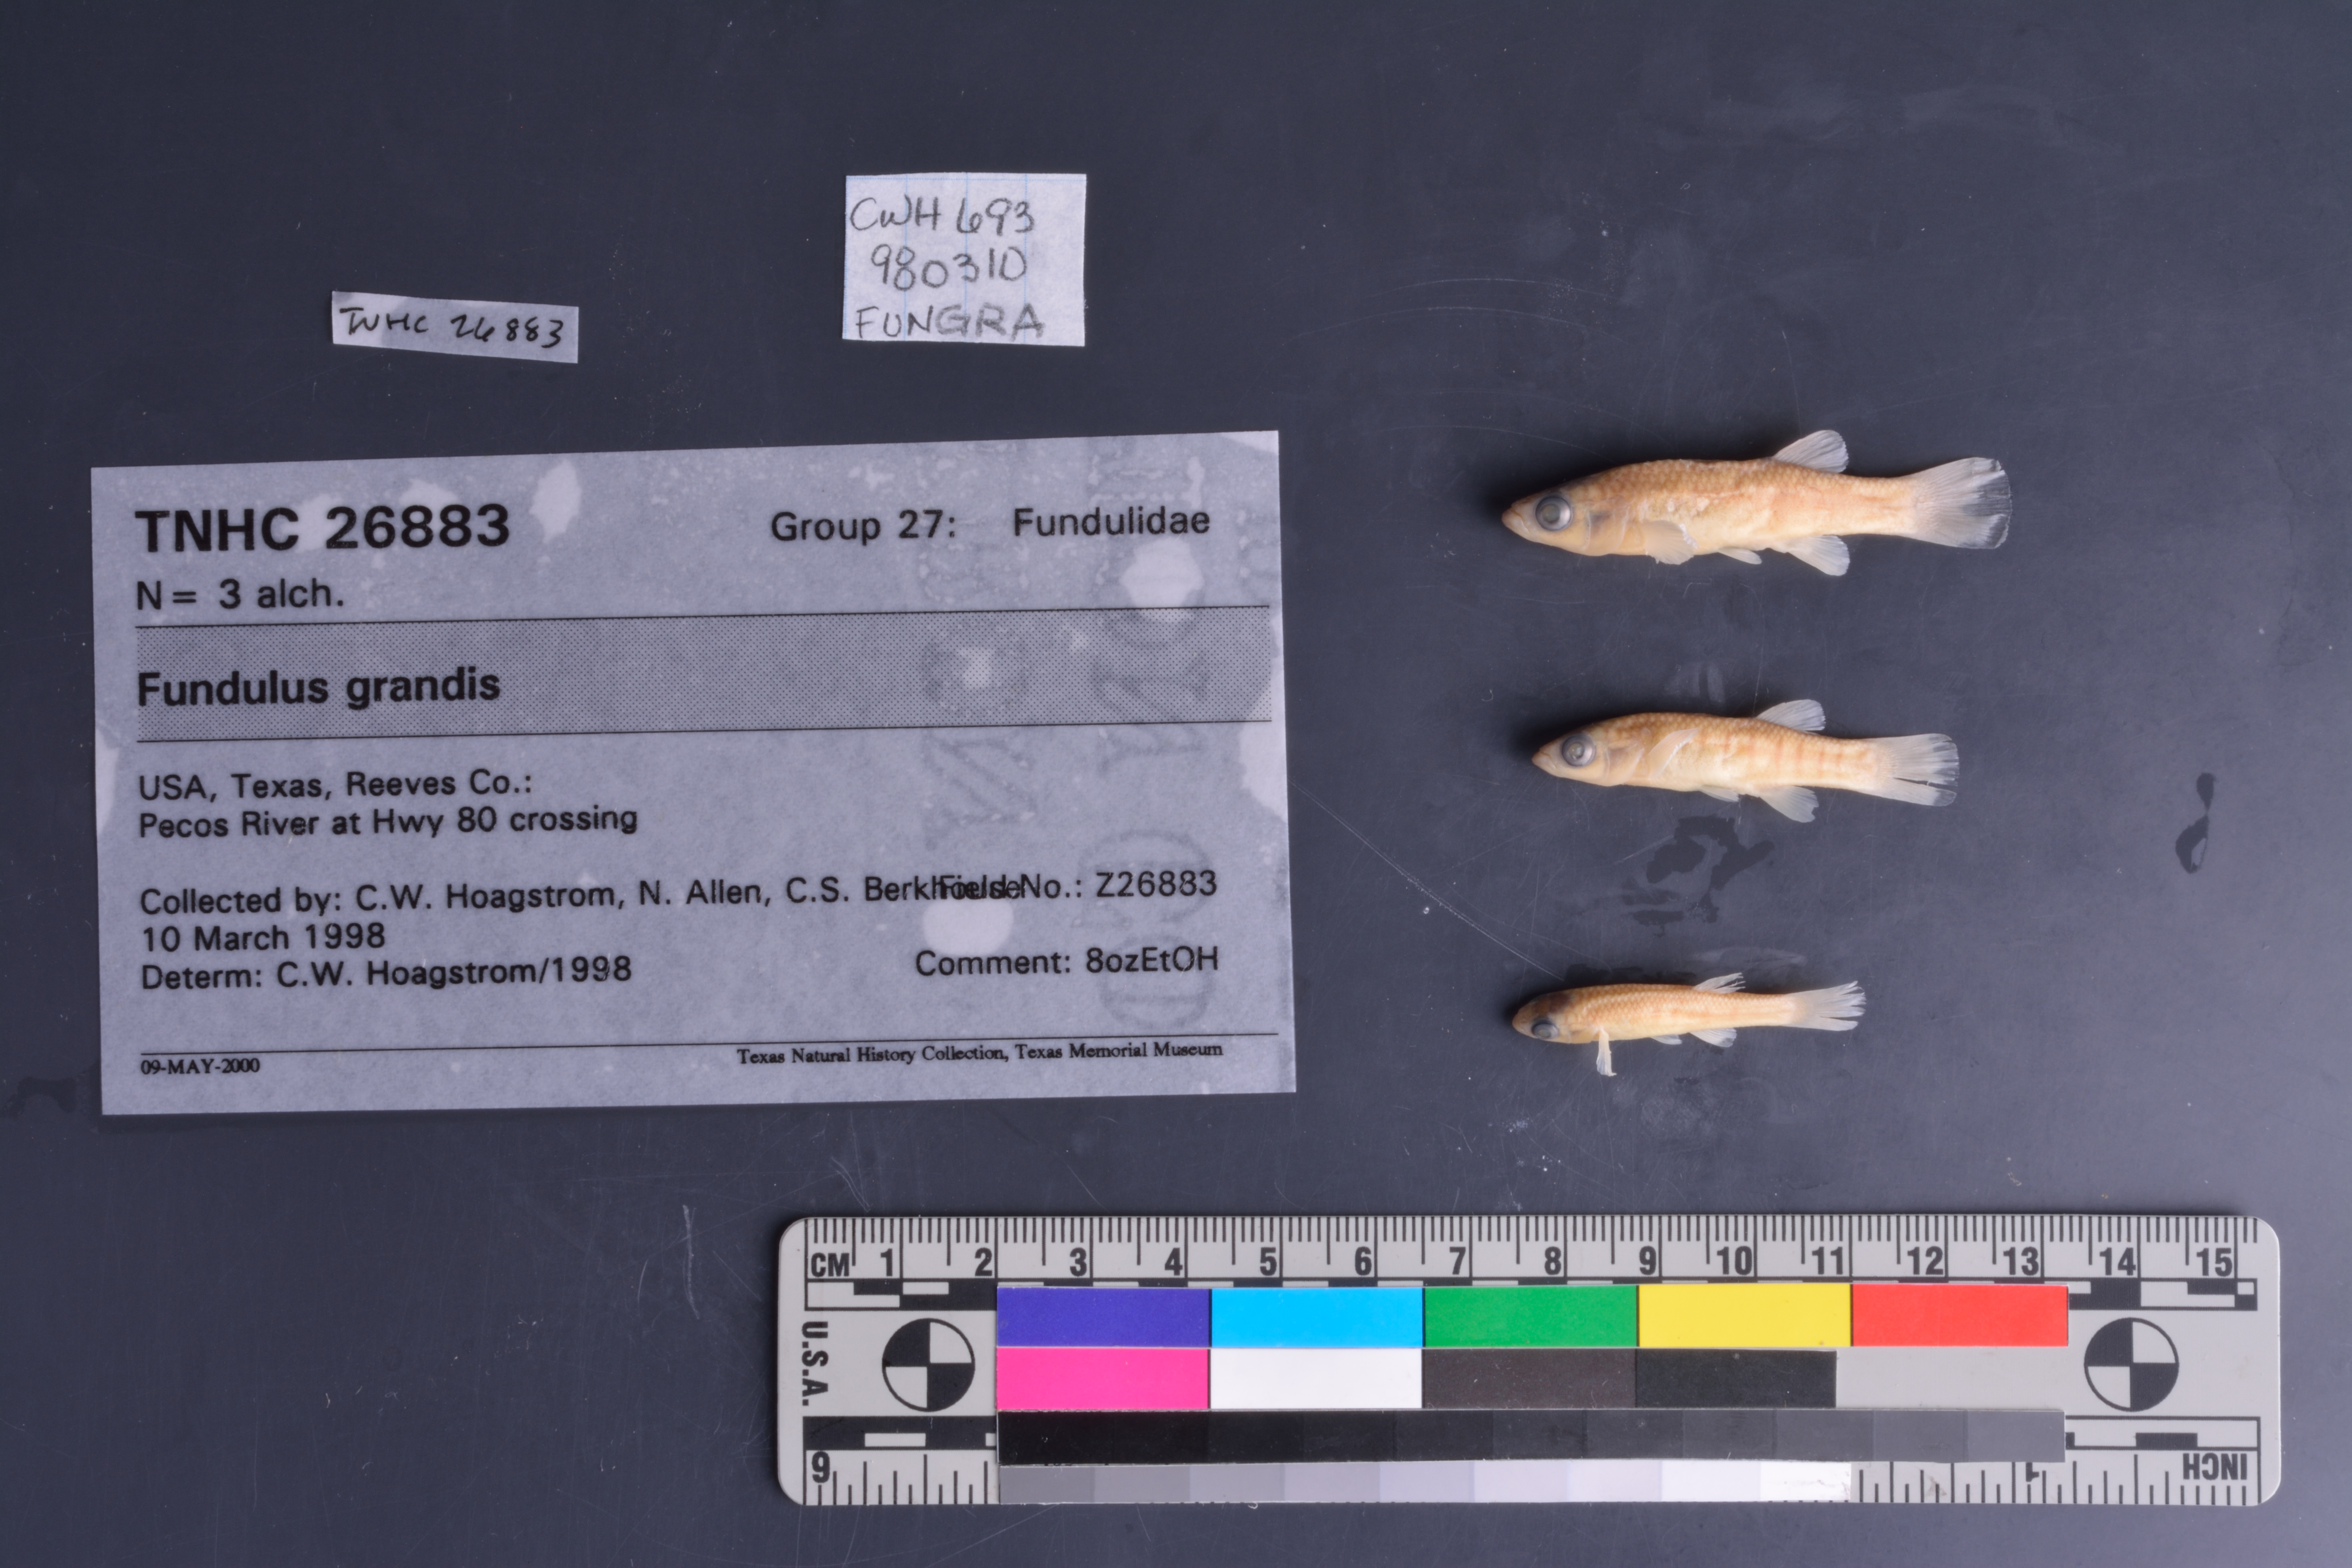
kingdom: Animalia
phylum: Chordata
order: Cyprinodontiformes
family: Fundulidae
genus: Fundulus
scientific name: Fundulus grandis
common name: Gulf killifish
